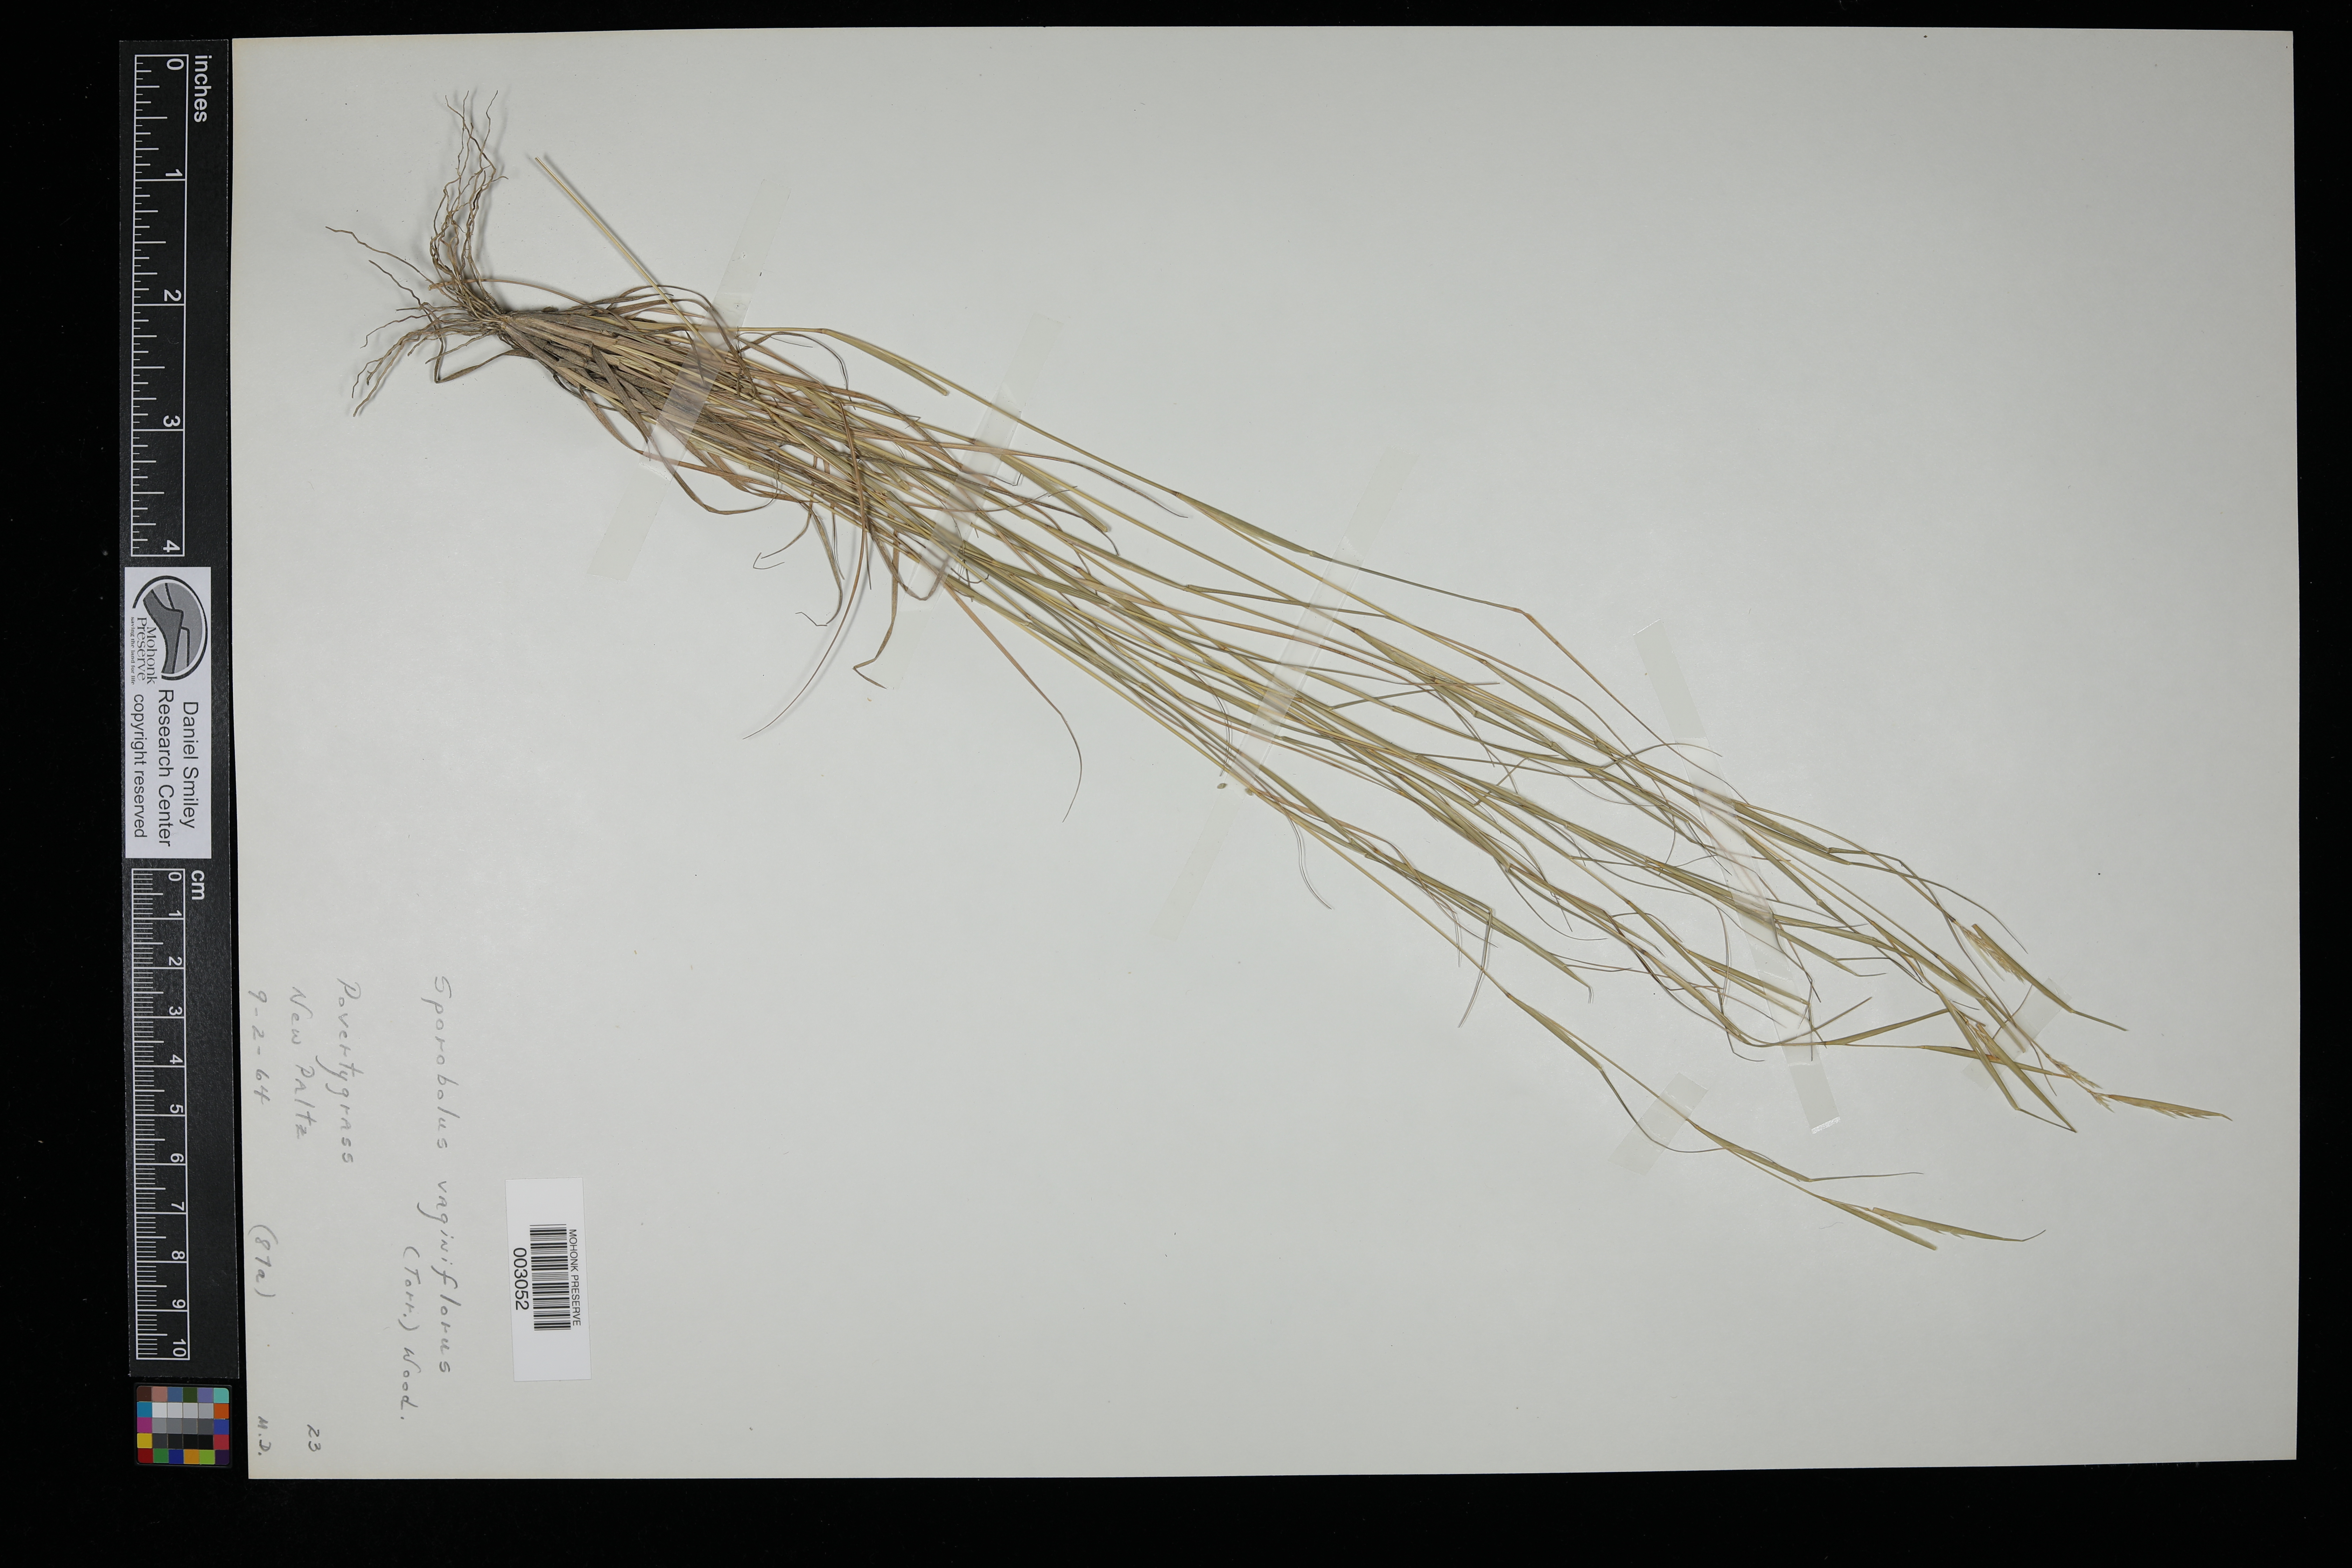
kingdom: Plantae
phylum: Tracheophyta
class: Liliopsida
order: Poales
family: Poaceae
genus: Sporobolus
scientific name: Sporobolus vaginiflorus
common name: Poverty dropseed
